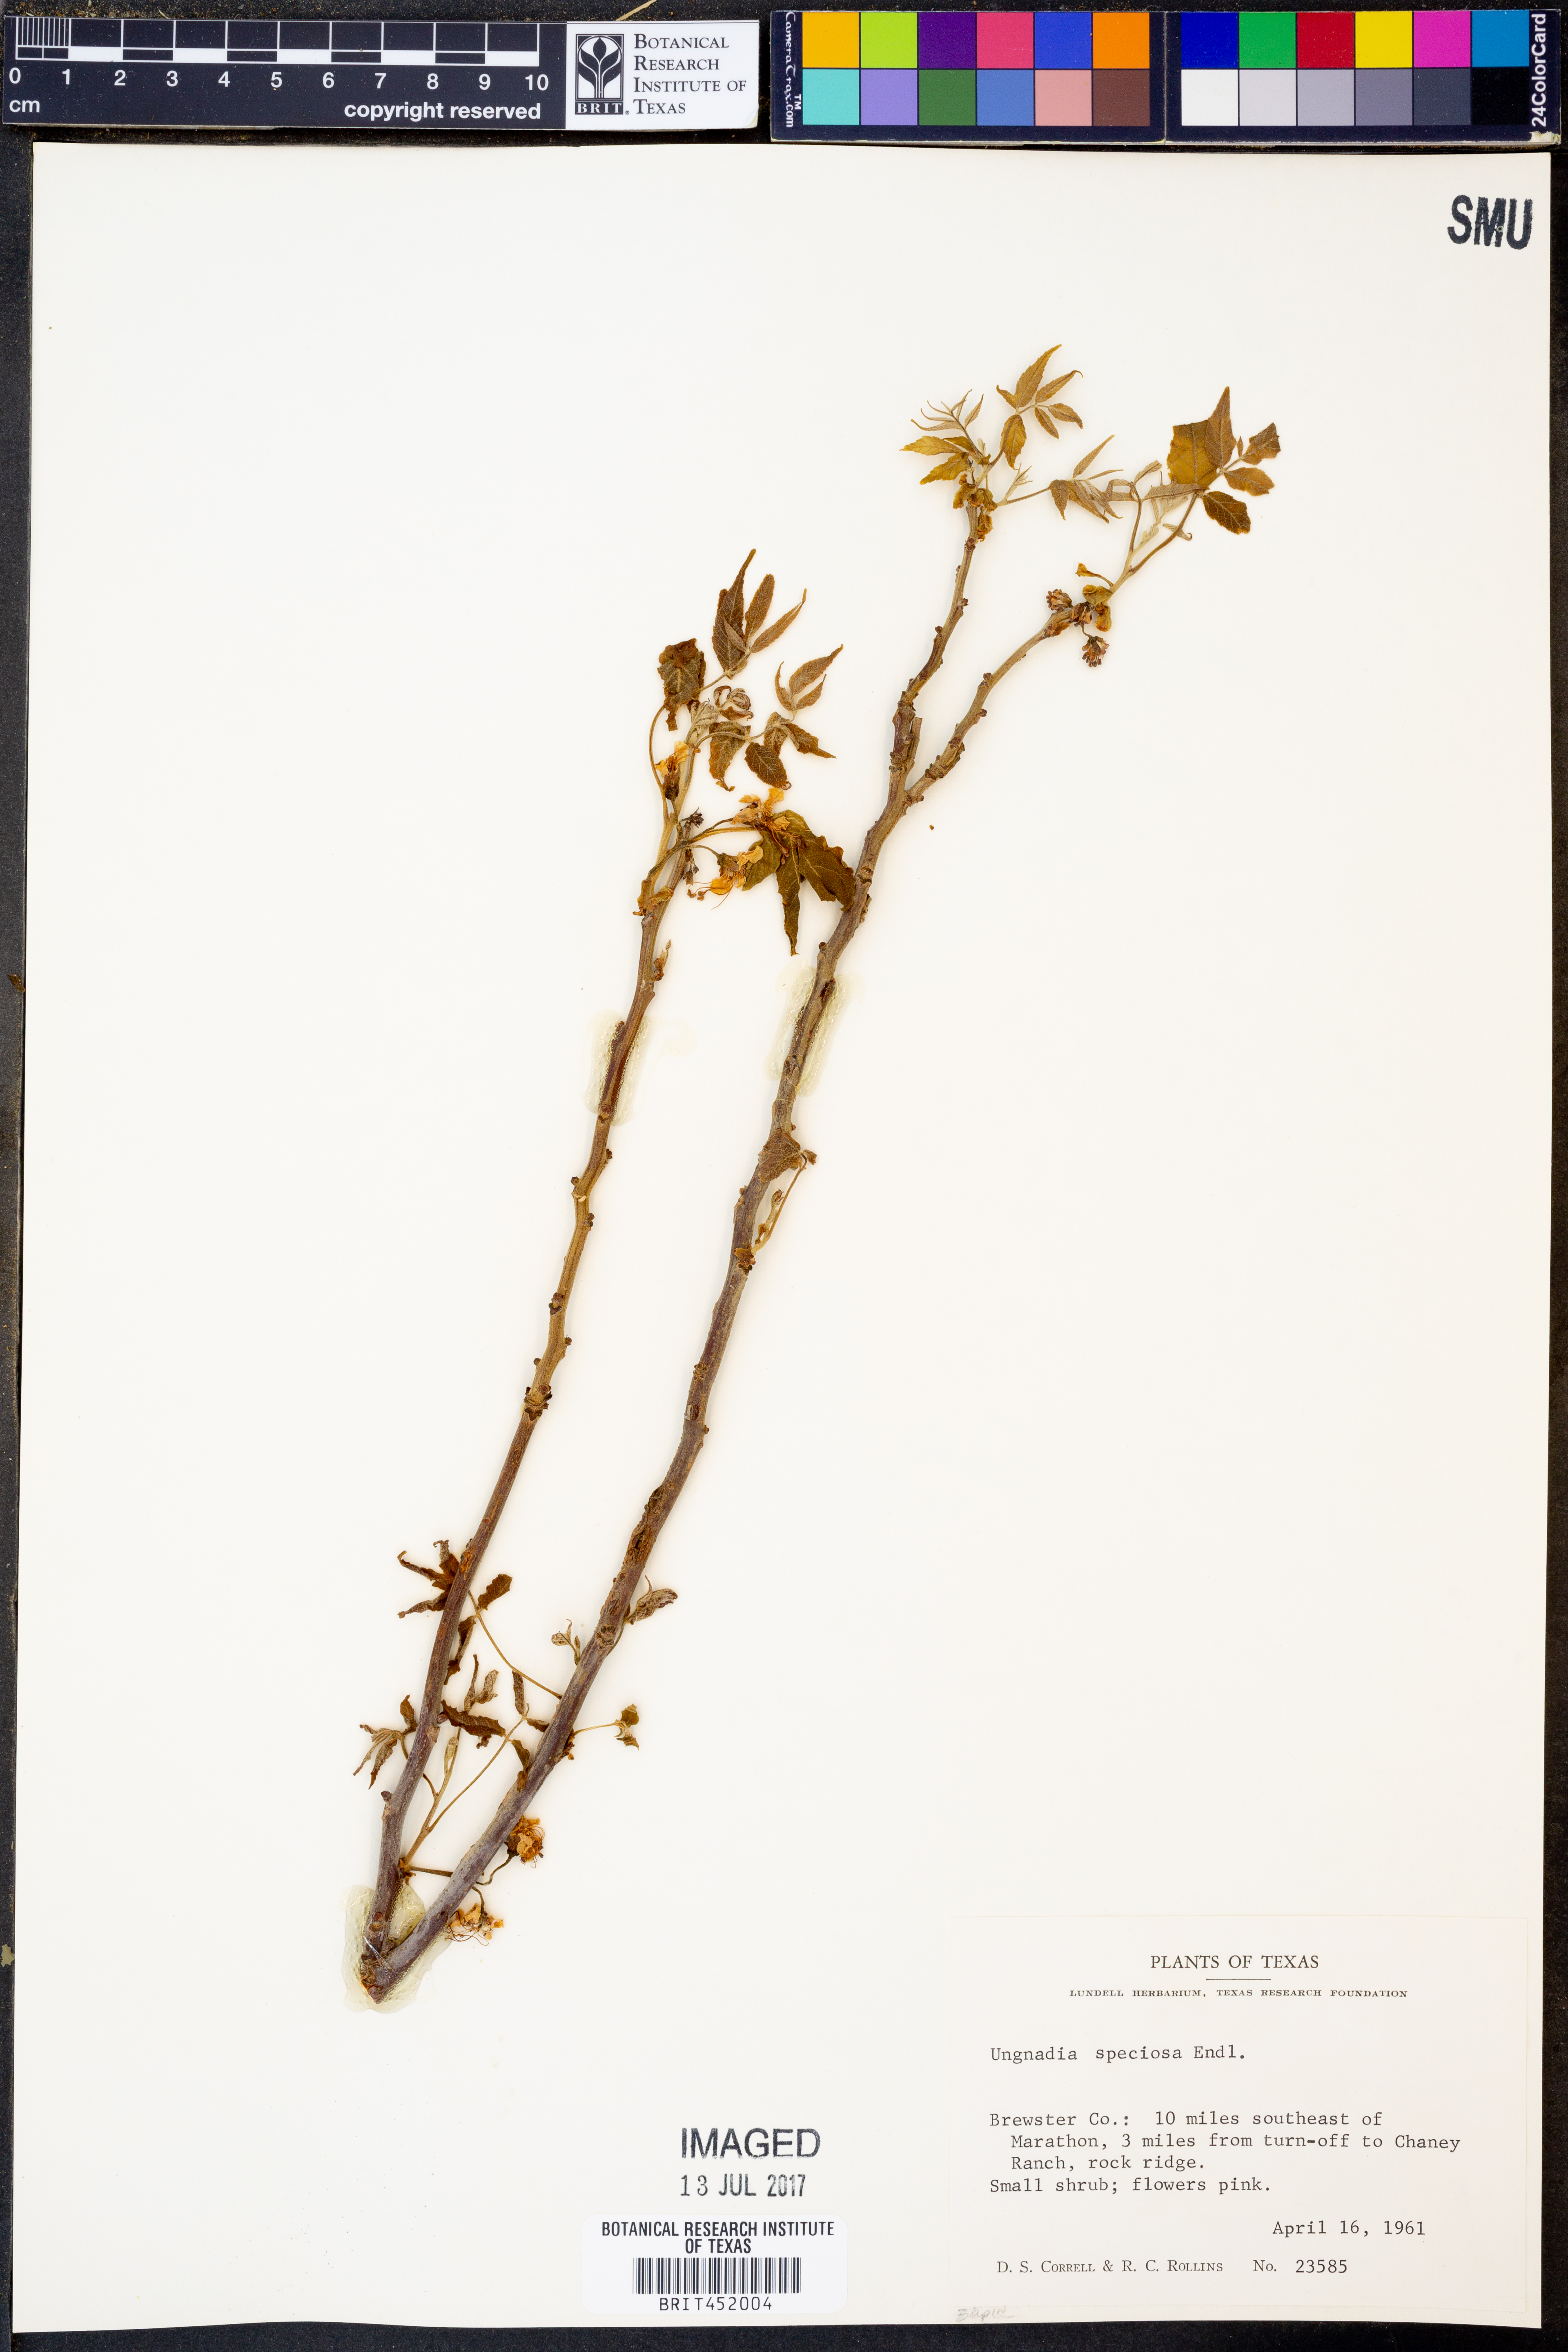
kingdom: Plantae
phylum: Tracheophyta
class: Magnoliopsida
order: Sapindales
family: Sapindaceae
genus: Ungnadia
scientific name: Ungnadia speciosa
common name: Texas-buckeye
